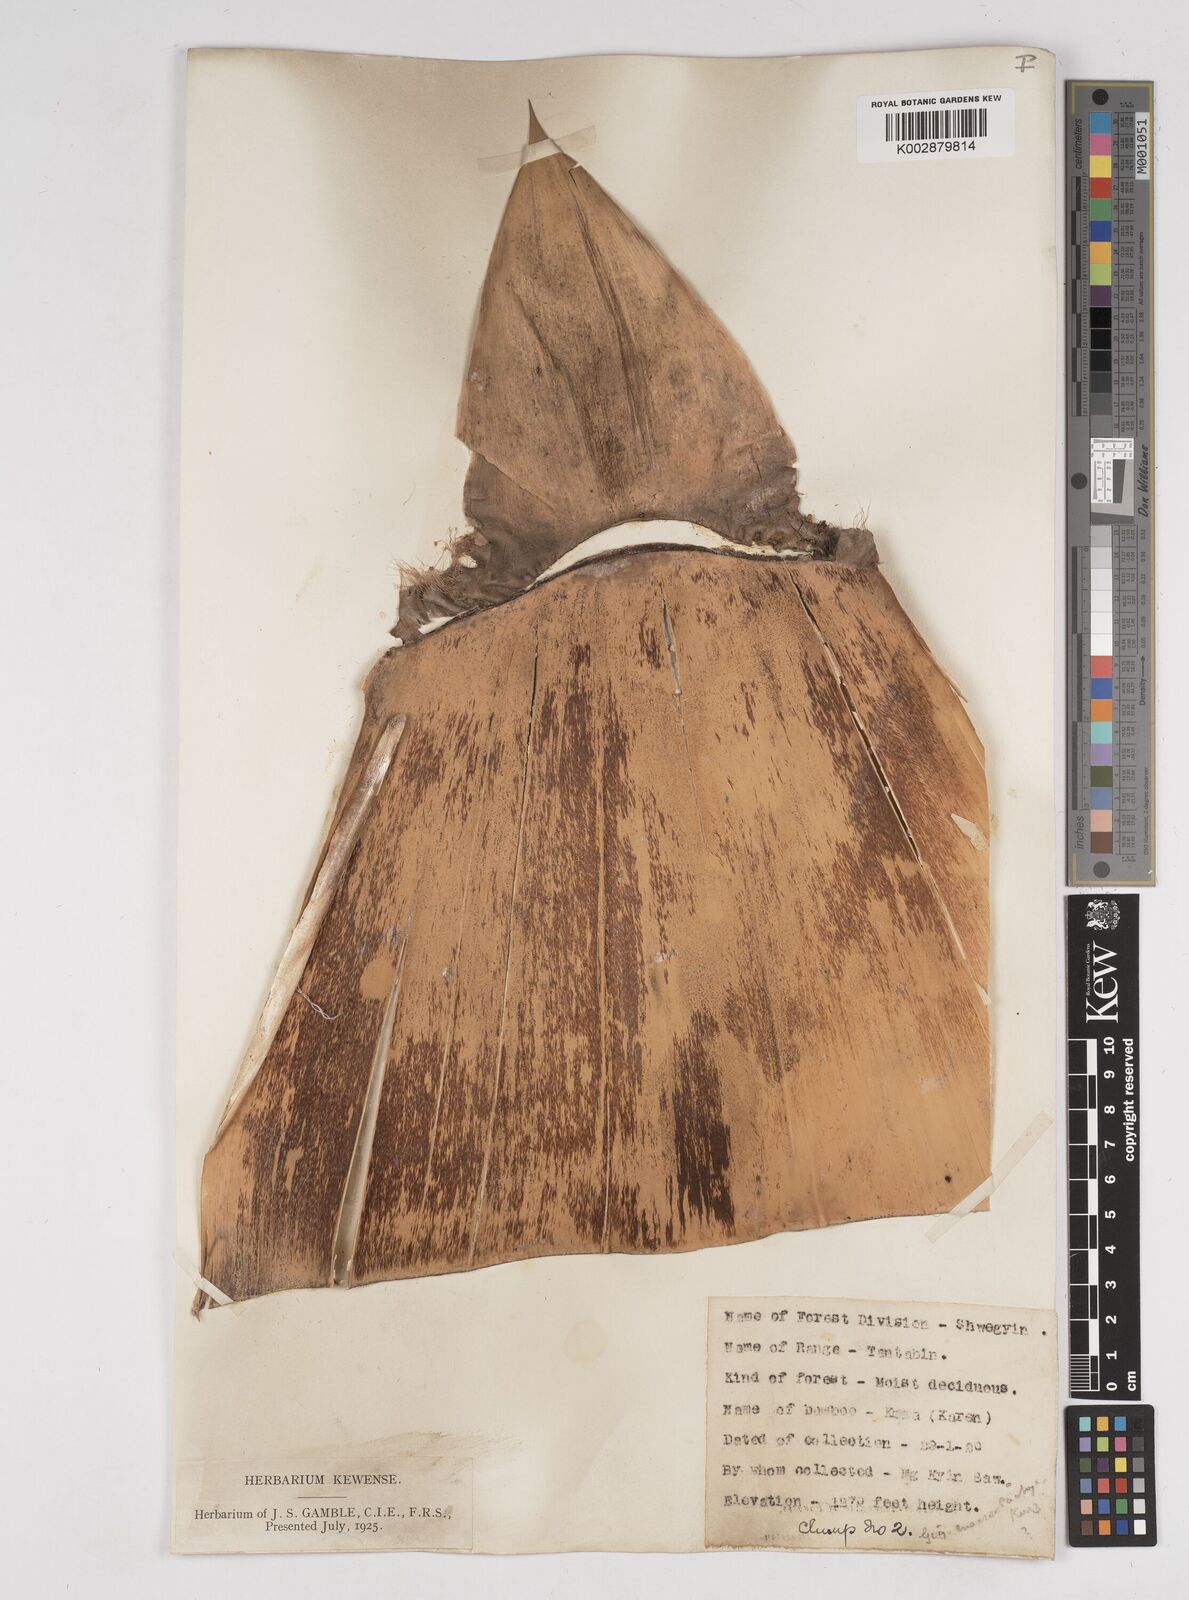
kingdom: Plantae
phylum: Tracheophyta
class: Liliopsida
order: Poales
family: Poaceae
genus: Gigantochloa
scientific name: Gigantochloa macrostachya
